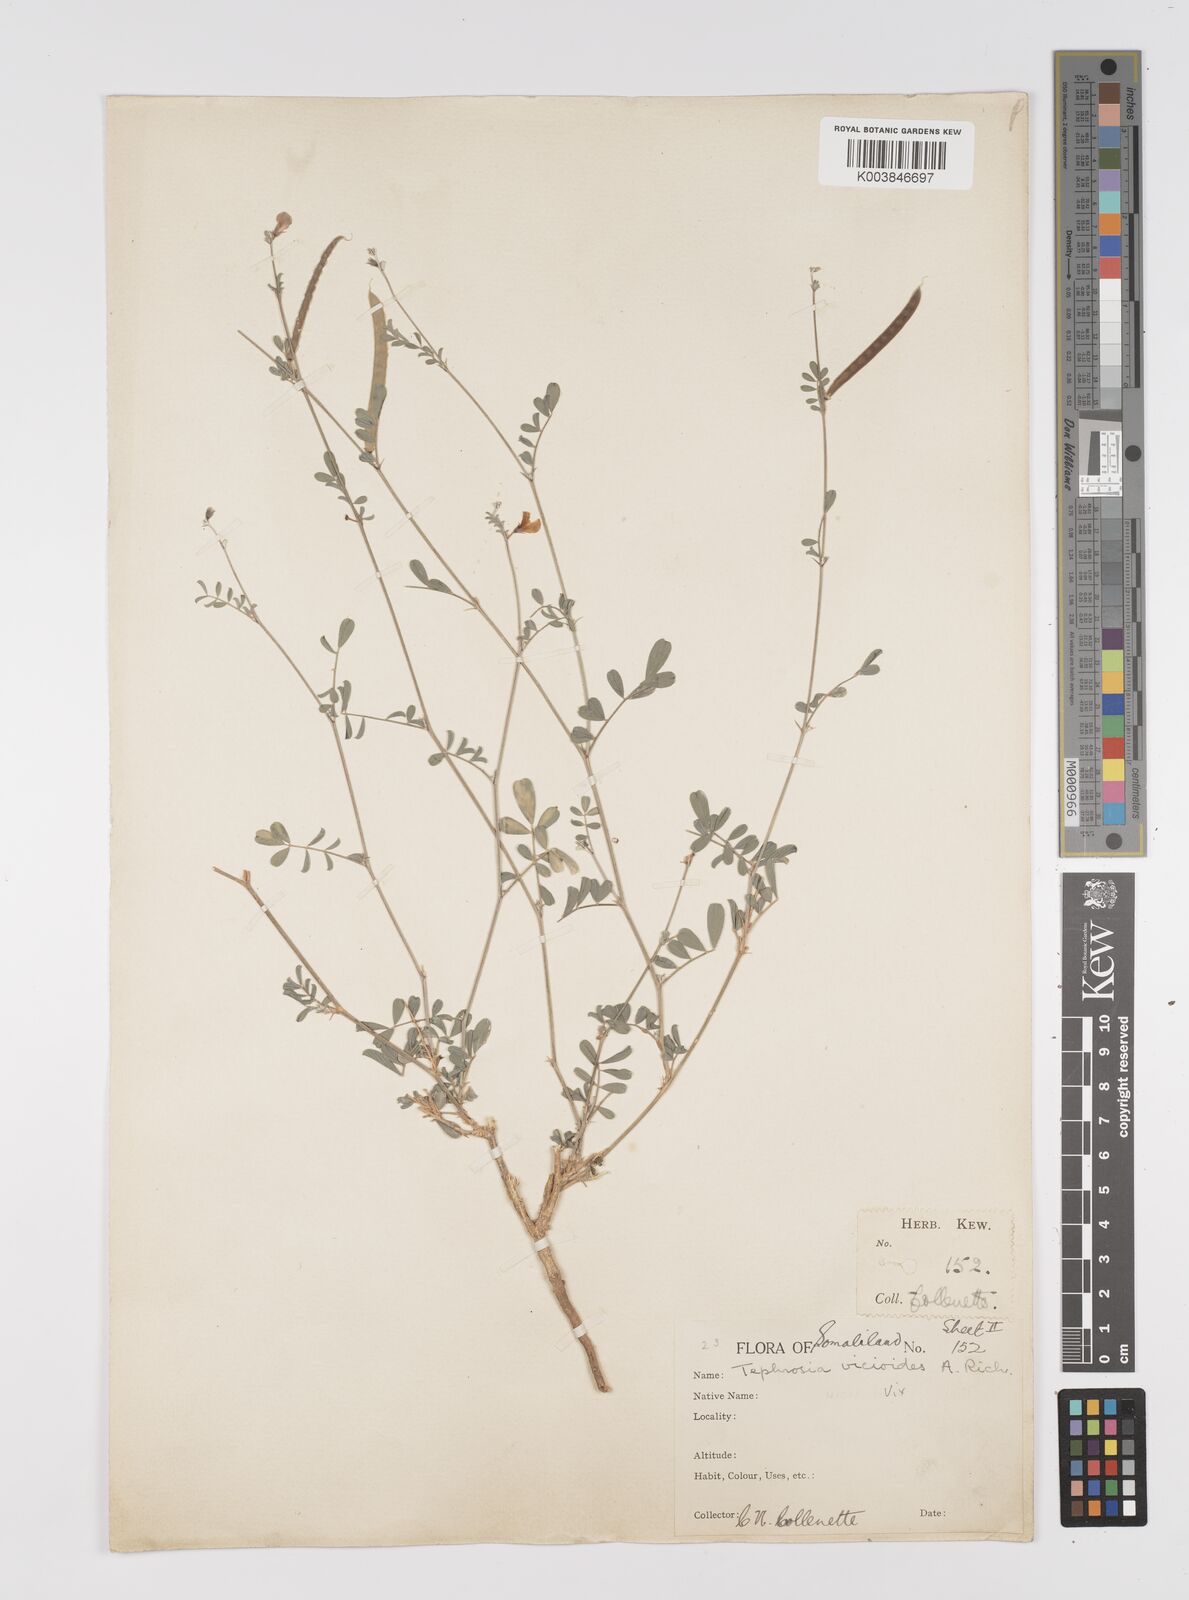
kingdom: Plantae
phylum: Tracheophyta
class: Magnoliopsida
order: Fabales
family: Fabaceae
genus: Tephrosia
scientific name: Tephrosia
